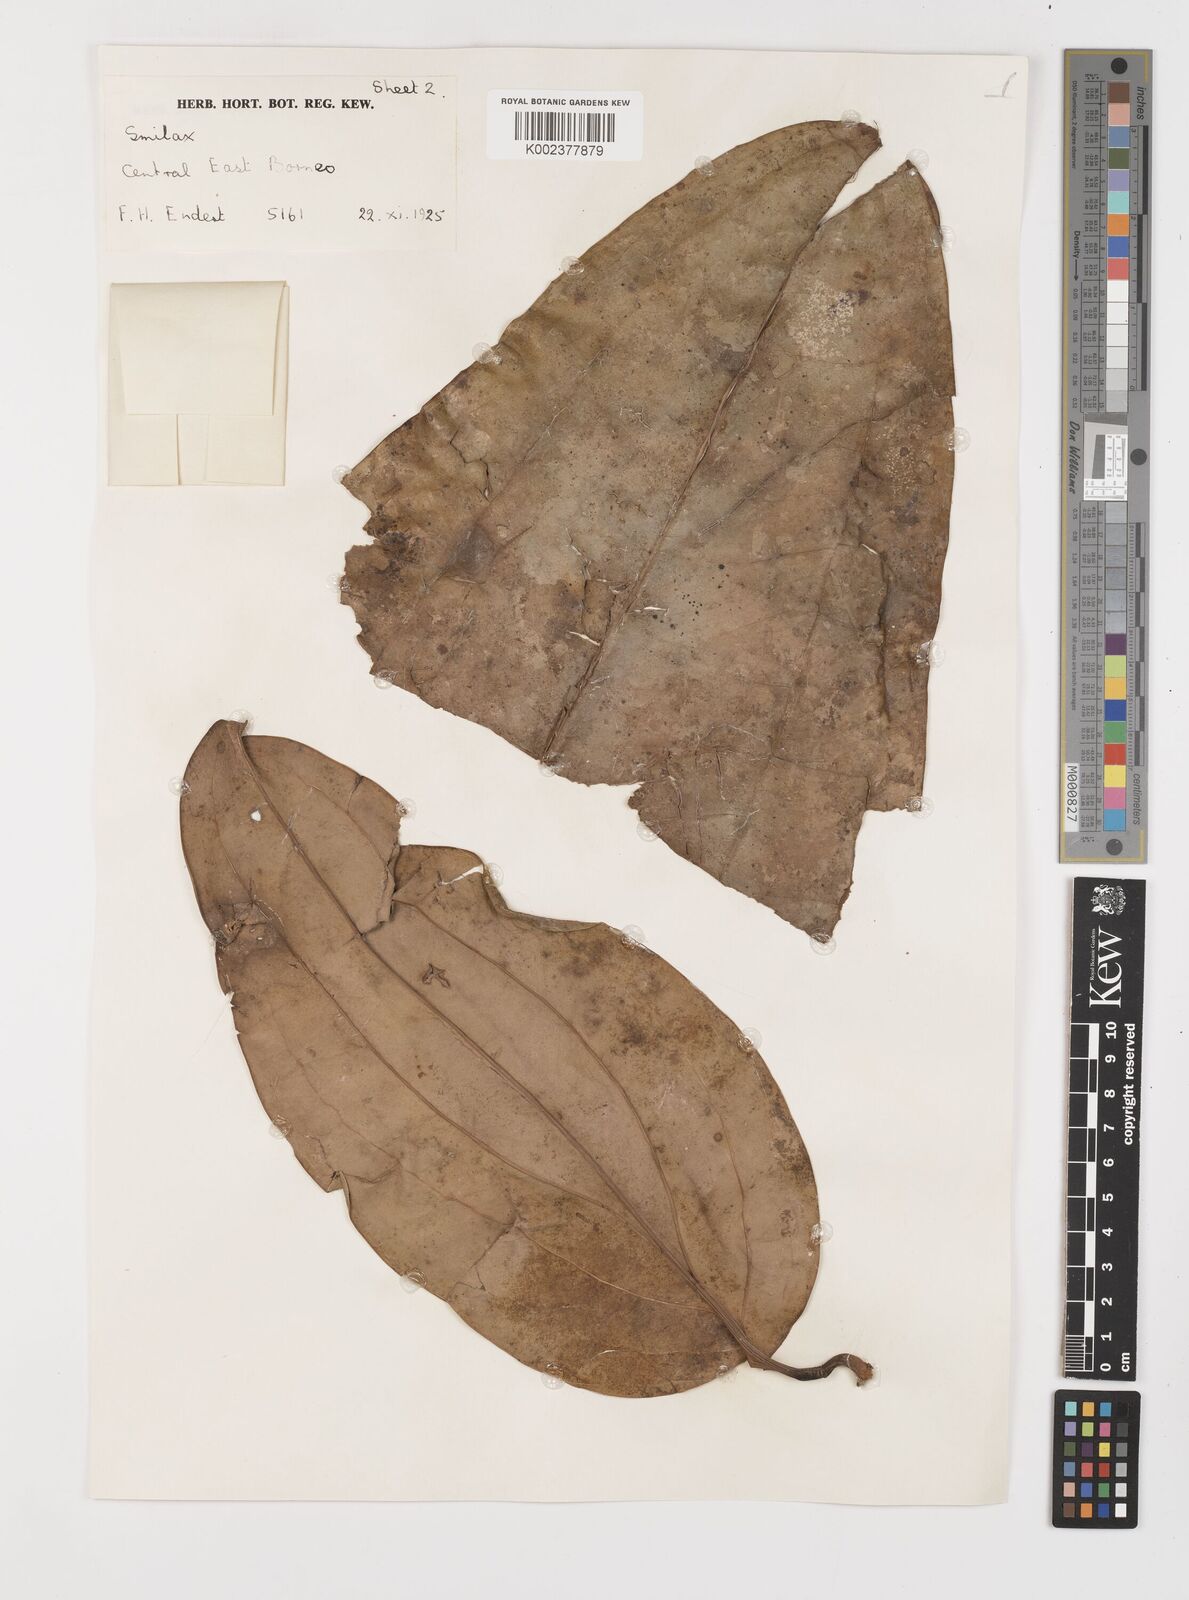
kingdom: Plantae
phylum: Tracheophyta
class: Liliopsida
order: Liliales
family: Smilacaceae
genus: Smilax
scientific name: Smilax
